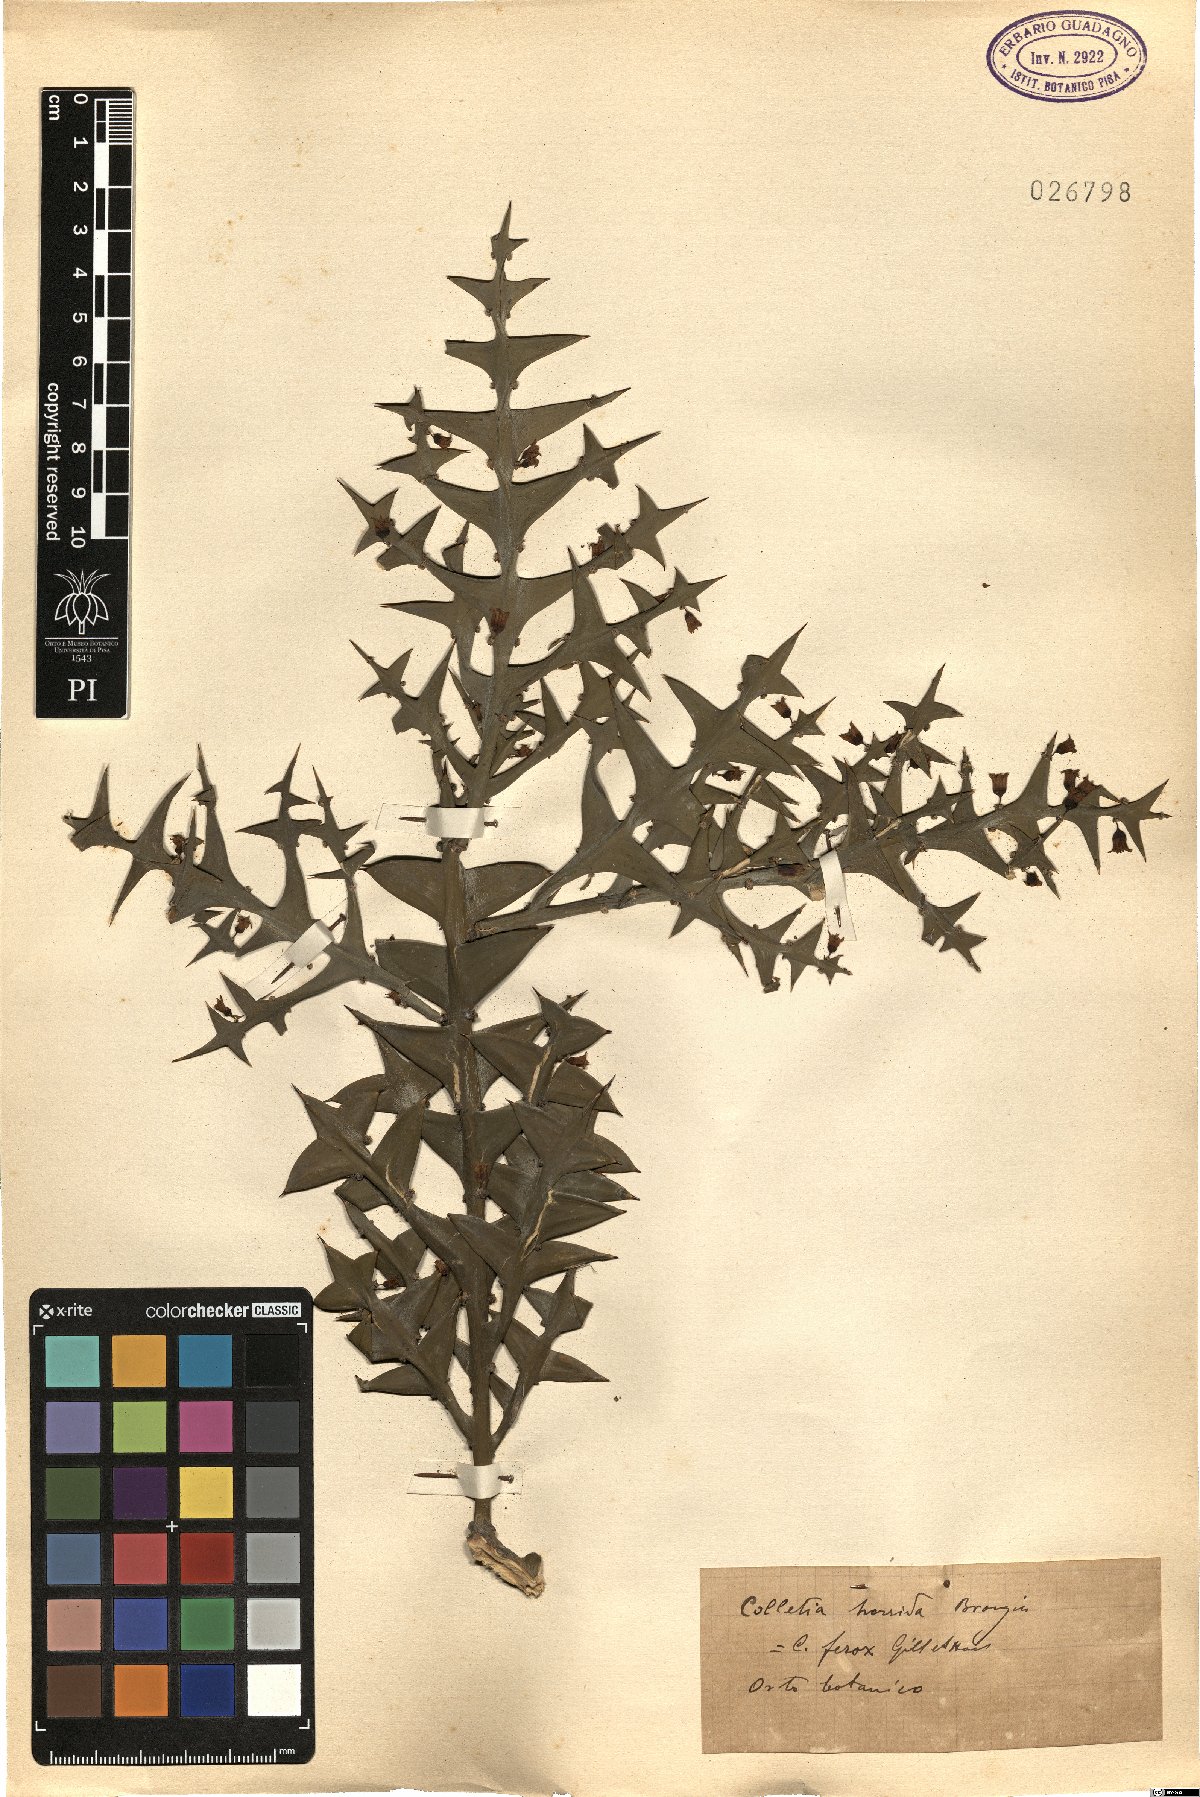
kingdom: Plantae
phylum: Tracheophyta
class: Magnoliopsida
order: Rosales
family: Rhamnaceae
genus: Colletia
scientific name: Colletia spinosissima
